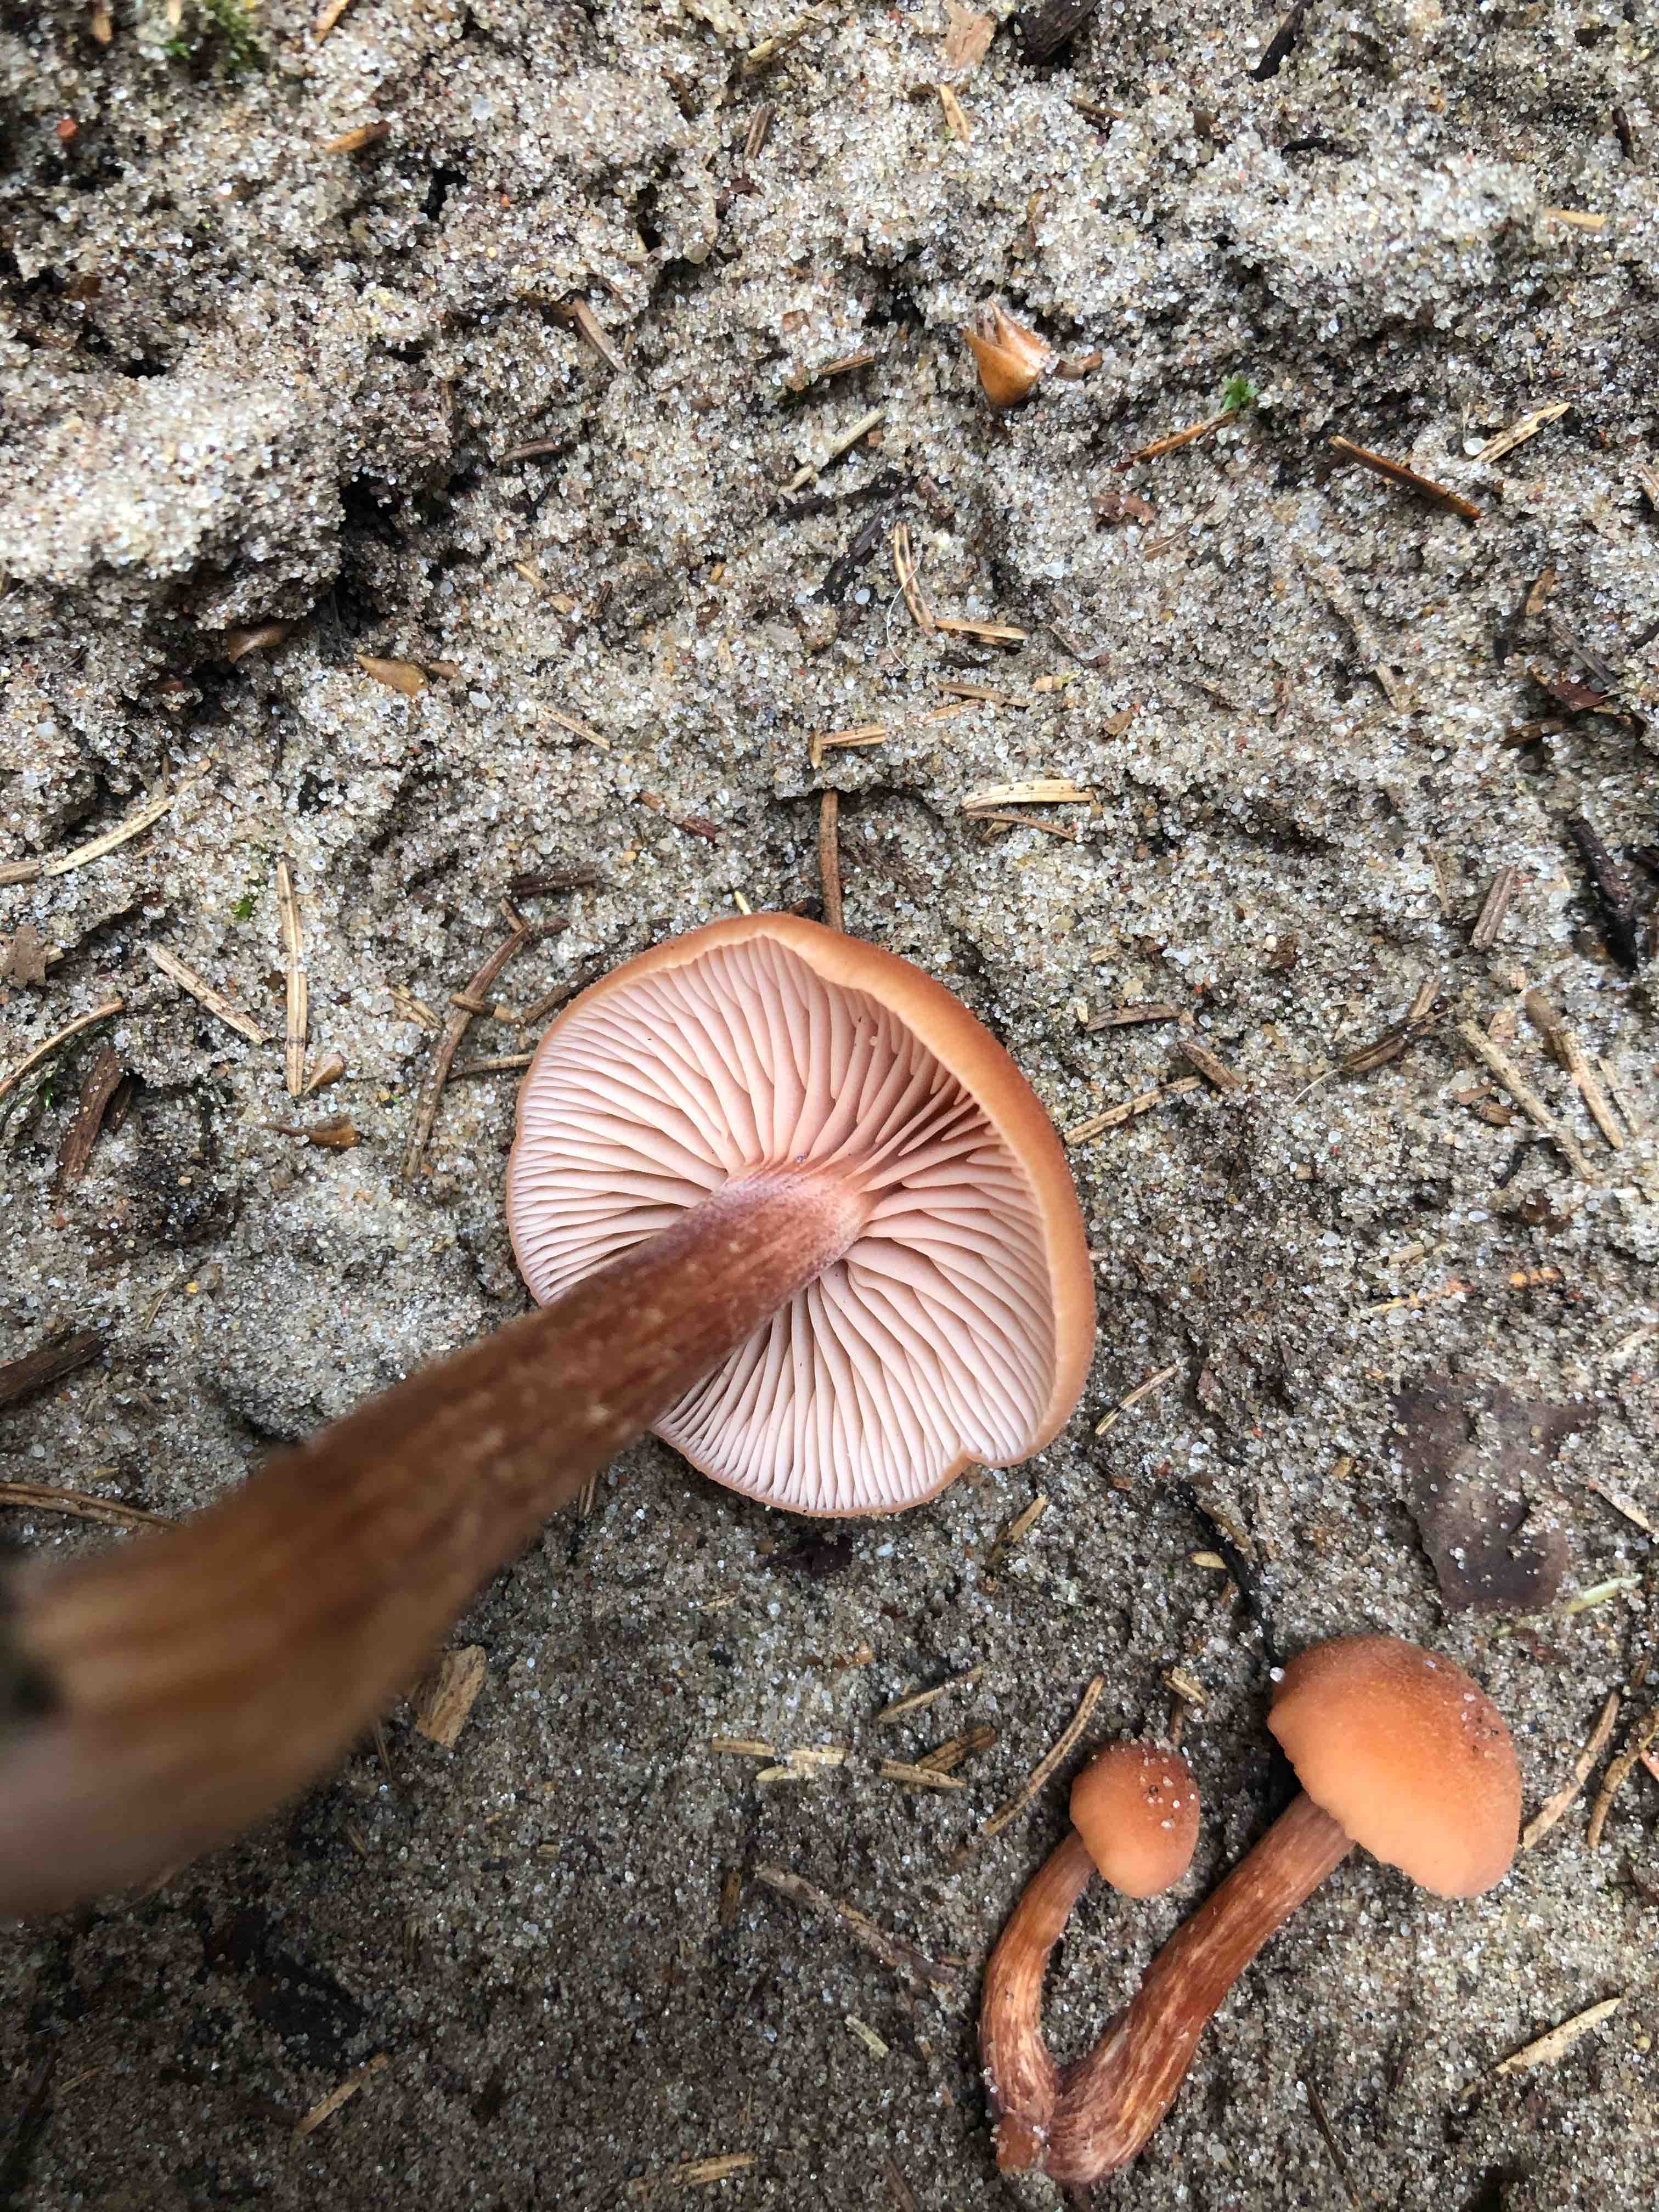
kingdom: Fungi
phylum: Basidiomycota
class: Agaricomycetes
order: Agaricales
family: Hydnangiaceae
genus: Laccaria
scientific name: Laccaria proxima
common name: stor ametysthat
